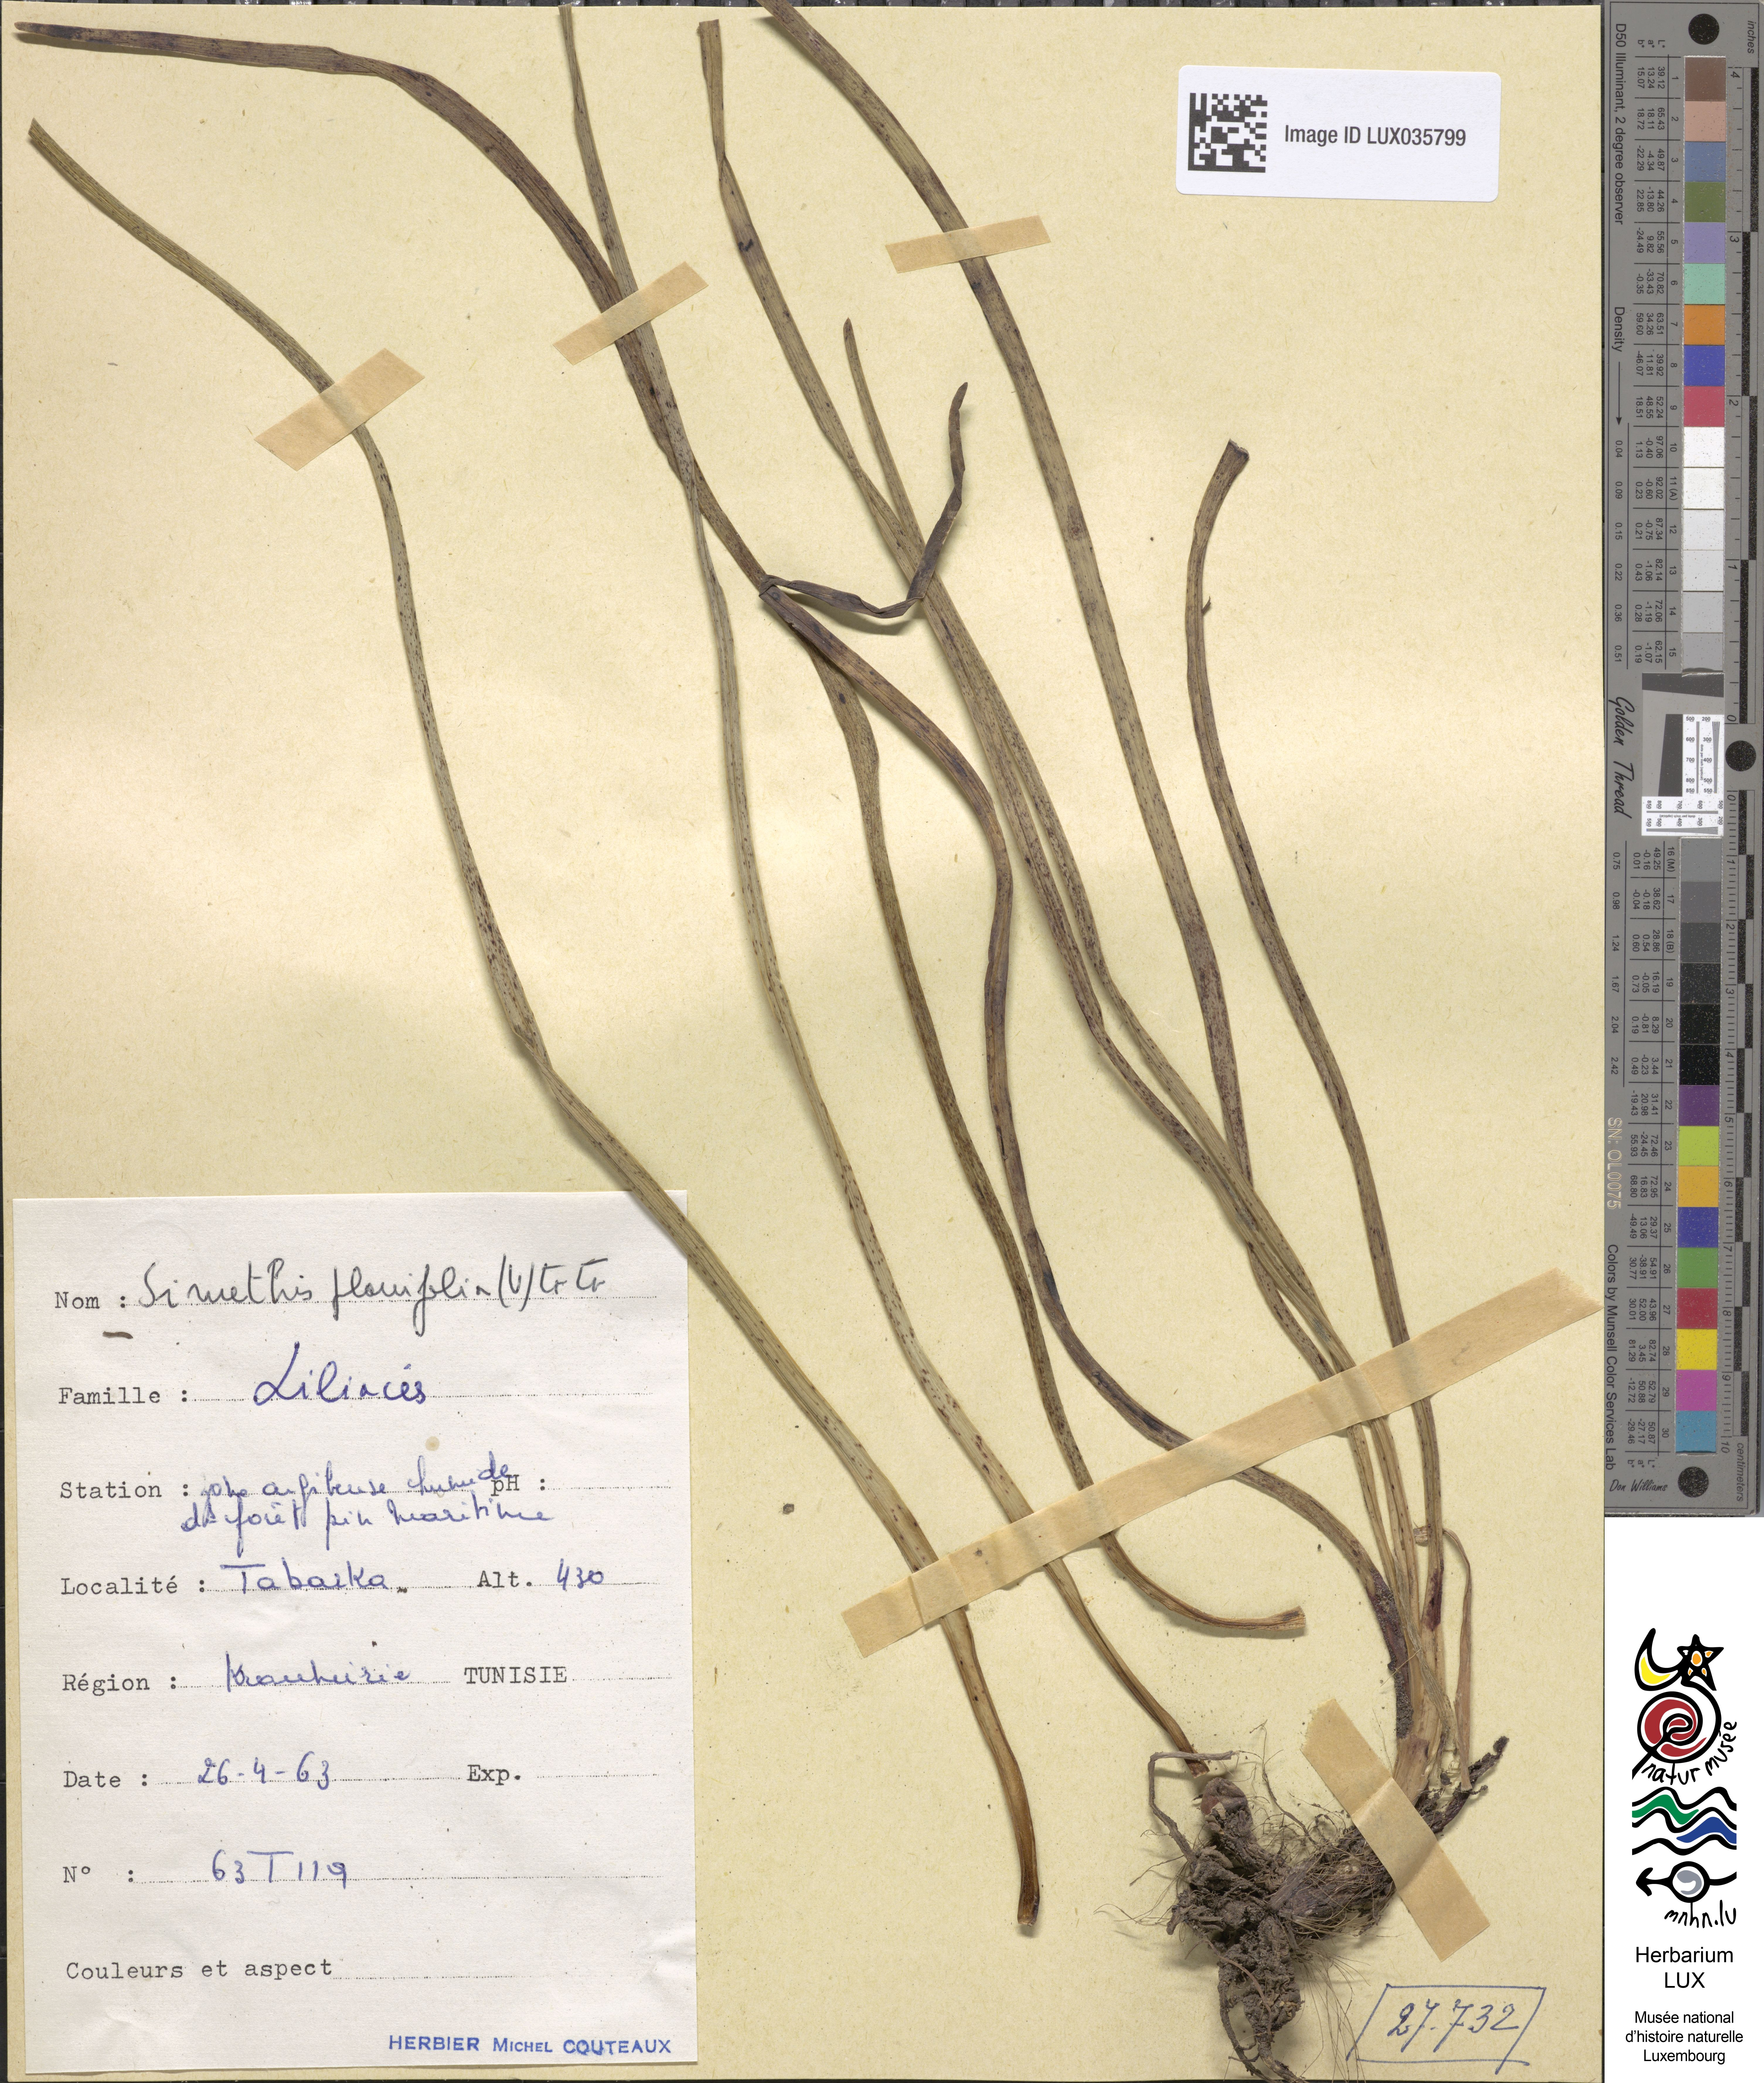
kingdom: Plantae
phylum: Tracheophyta
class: Liliopsida
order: Asparagales
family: Asphodelaceae
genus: Simethis
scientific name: Simethis mattiazzii
